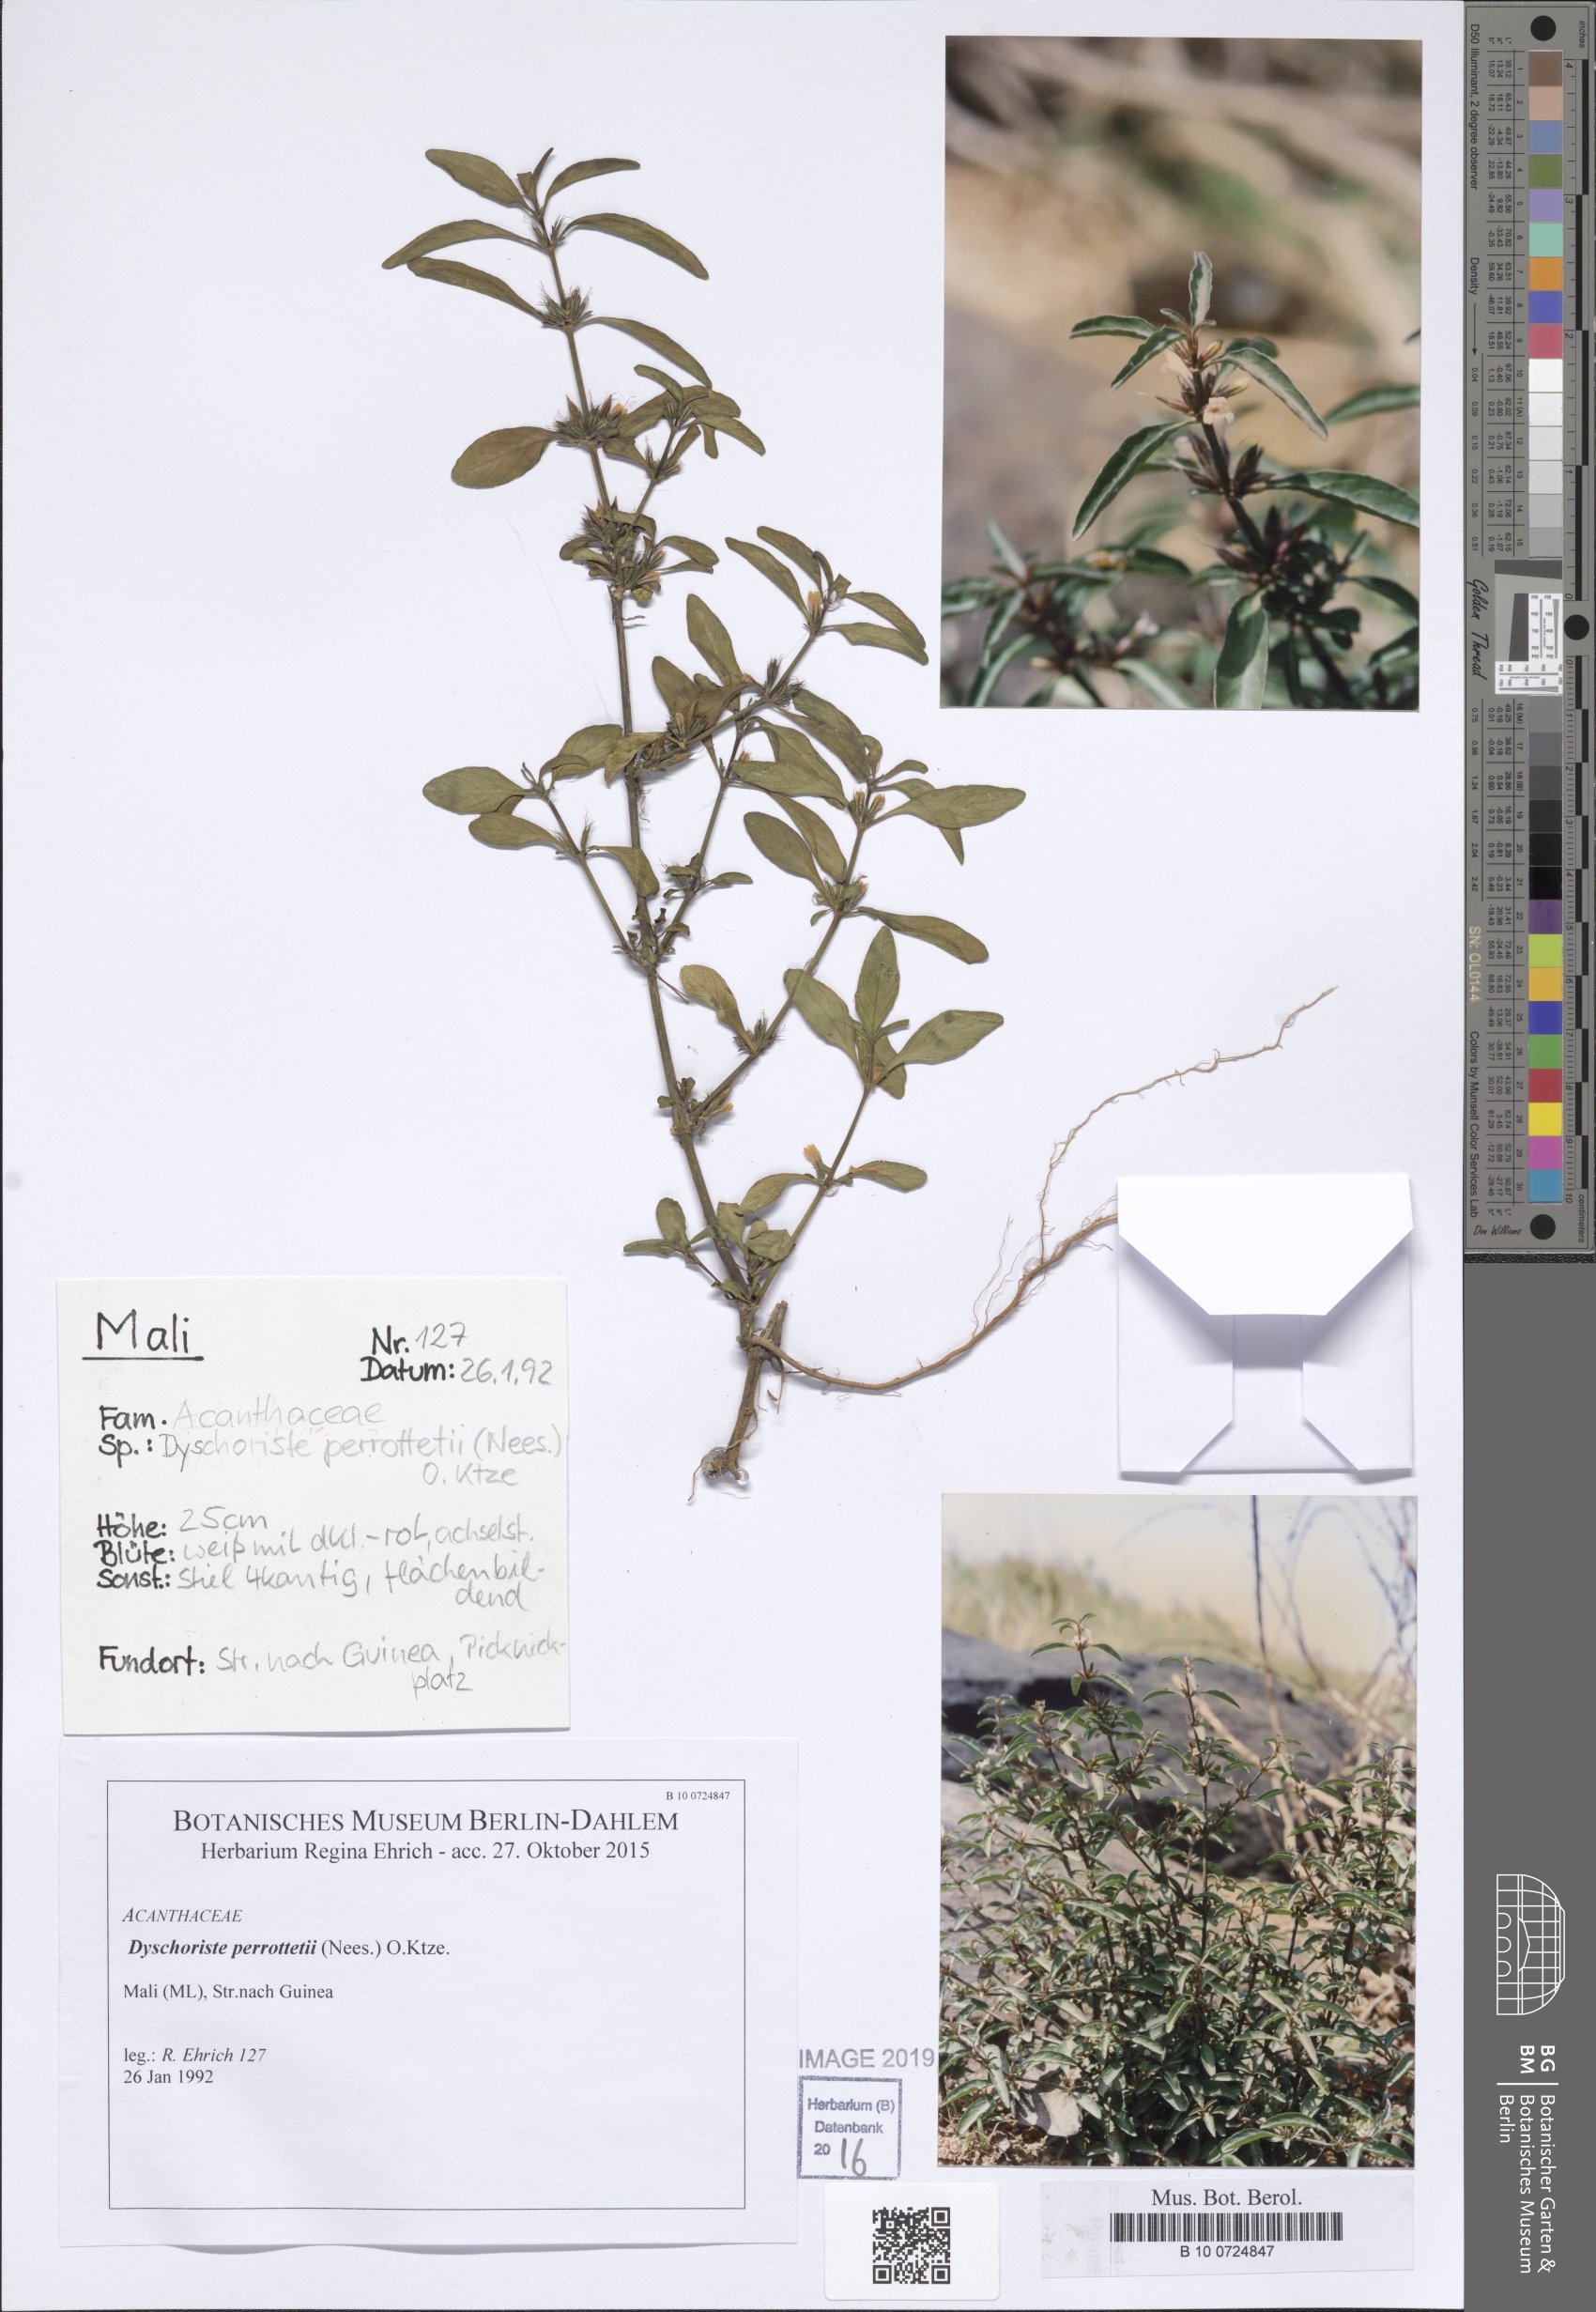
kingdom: Plantae
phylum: Tracheophyta
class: Magnoliopsida
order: Lamiales
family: Acanthaceae
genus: Dyschoriste
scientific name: Dyschoriste nagchana
